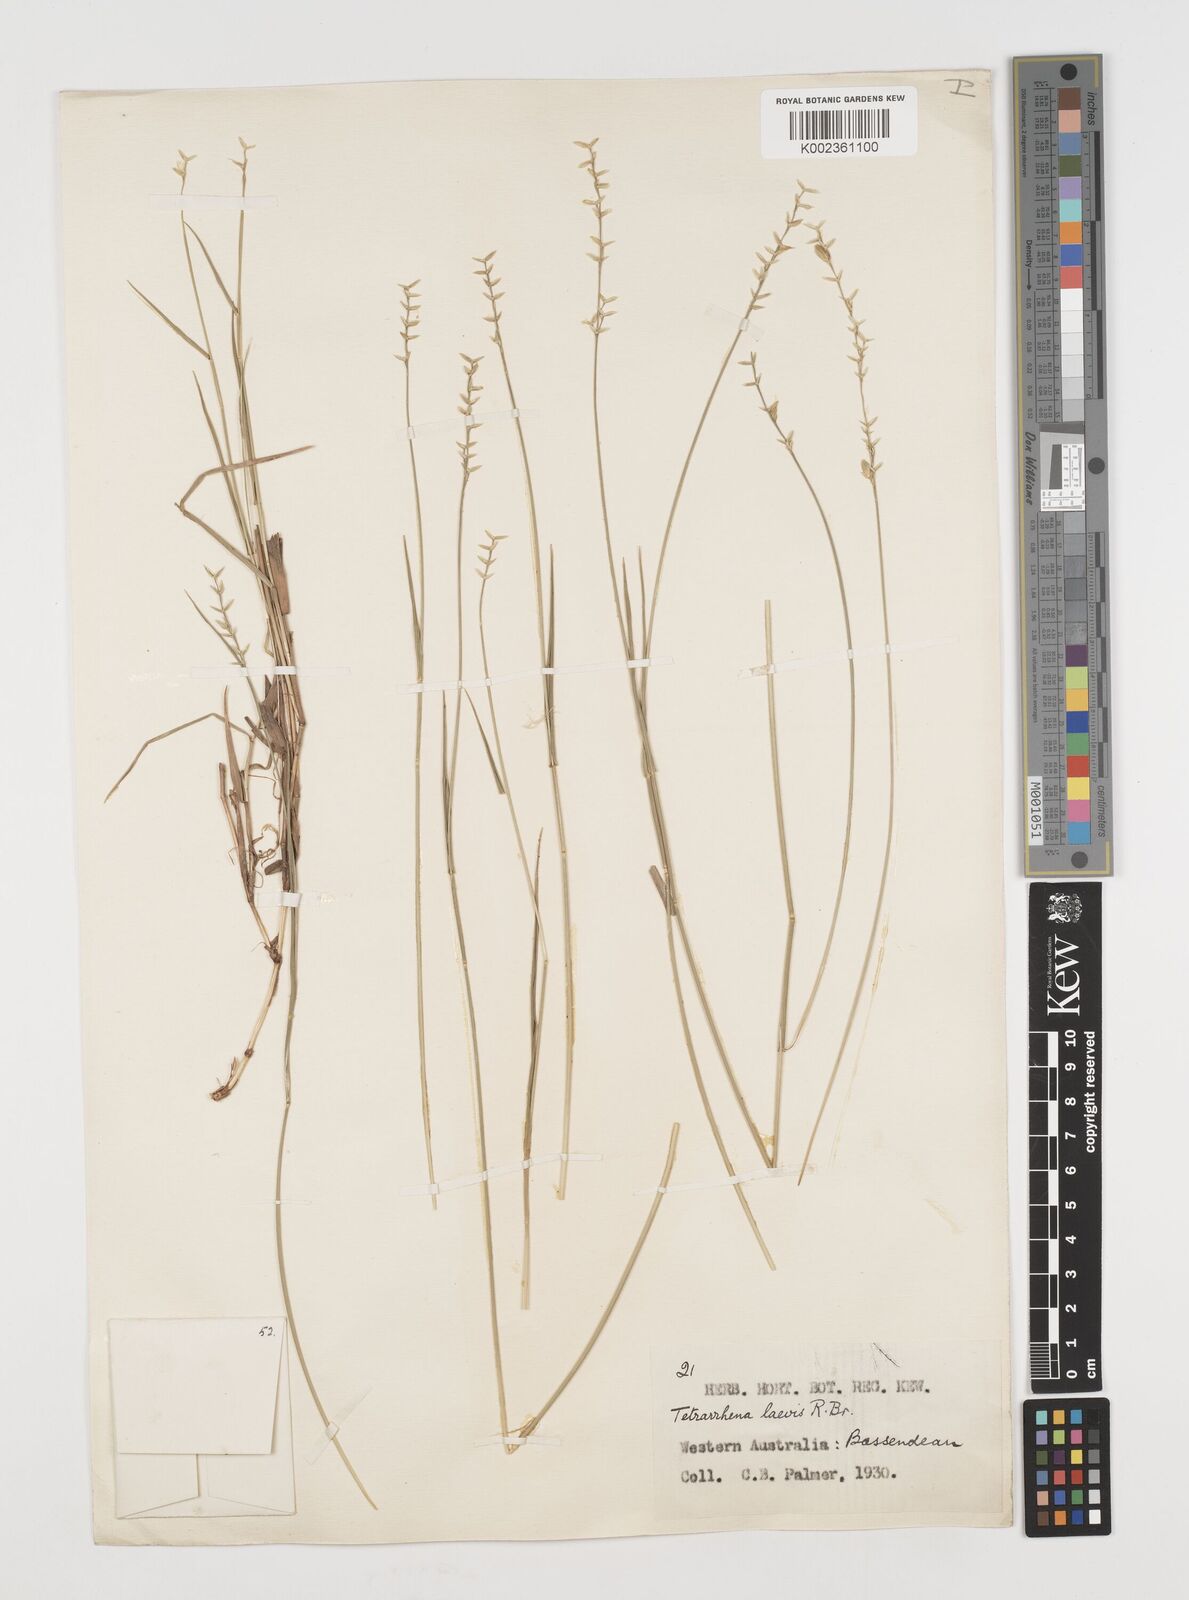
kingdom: Plantae
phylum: Tracheophyta
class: Liliopsida
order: Poales
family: Poaceae
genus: Tetrarrhena
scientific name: Tetrarrhena laevis
